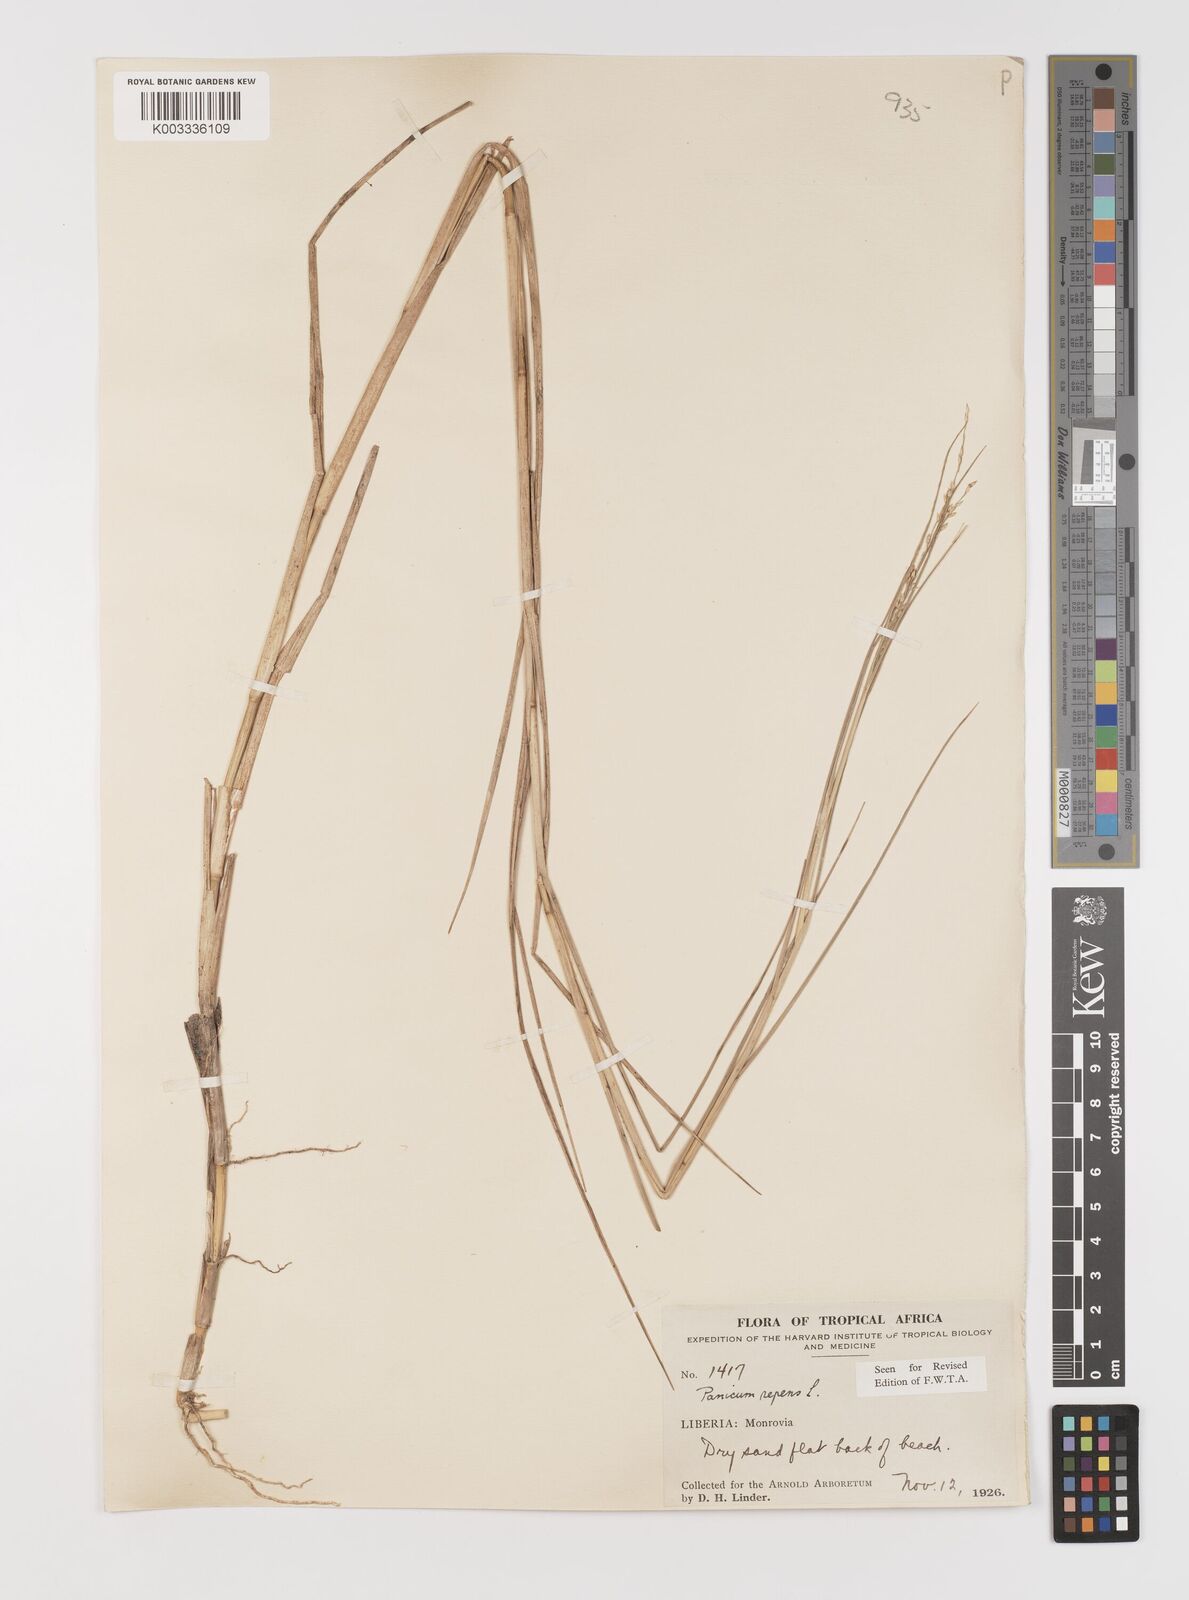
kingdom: Plantae
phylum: Tracheophyta
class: Liliopsida
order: Poales
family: Poaceae
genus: Panicum
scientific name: Panicum repens
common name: Torpedo grass
